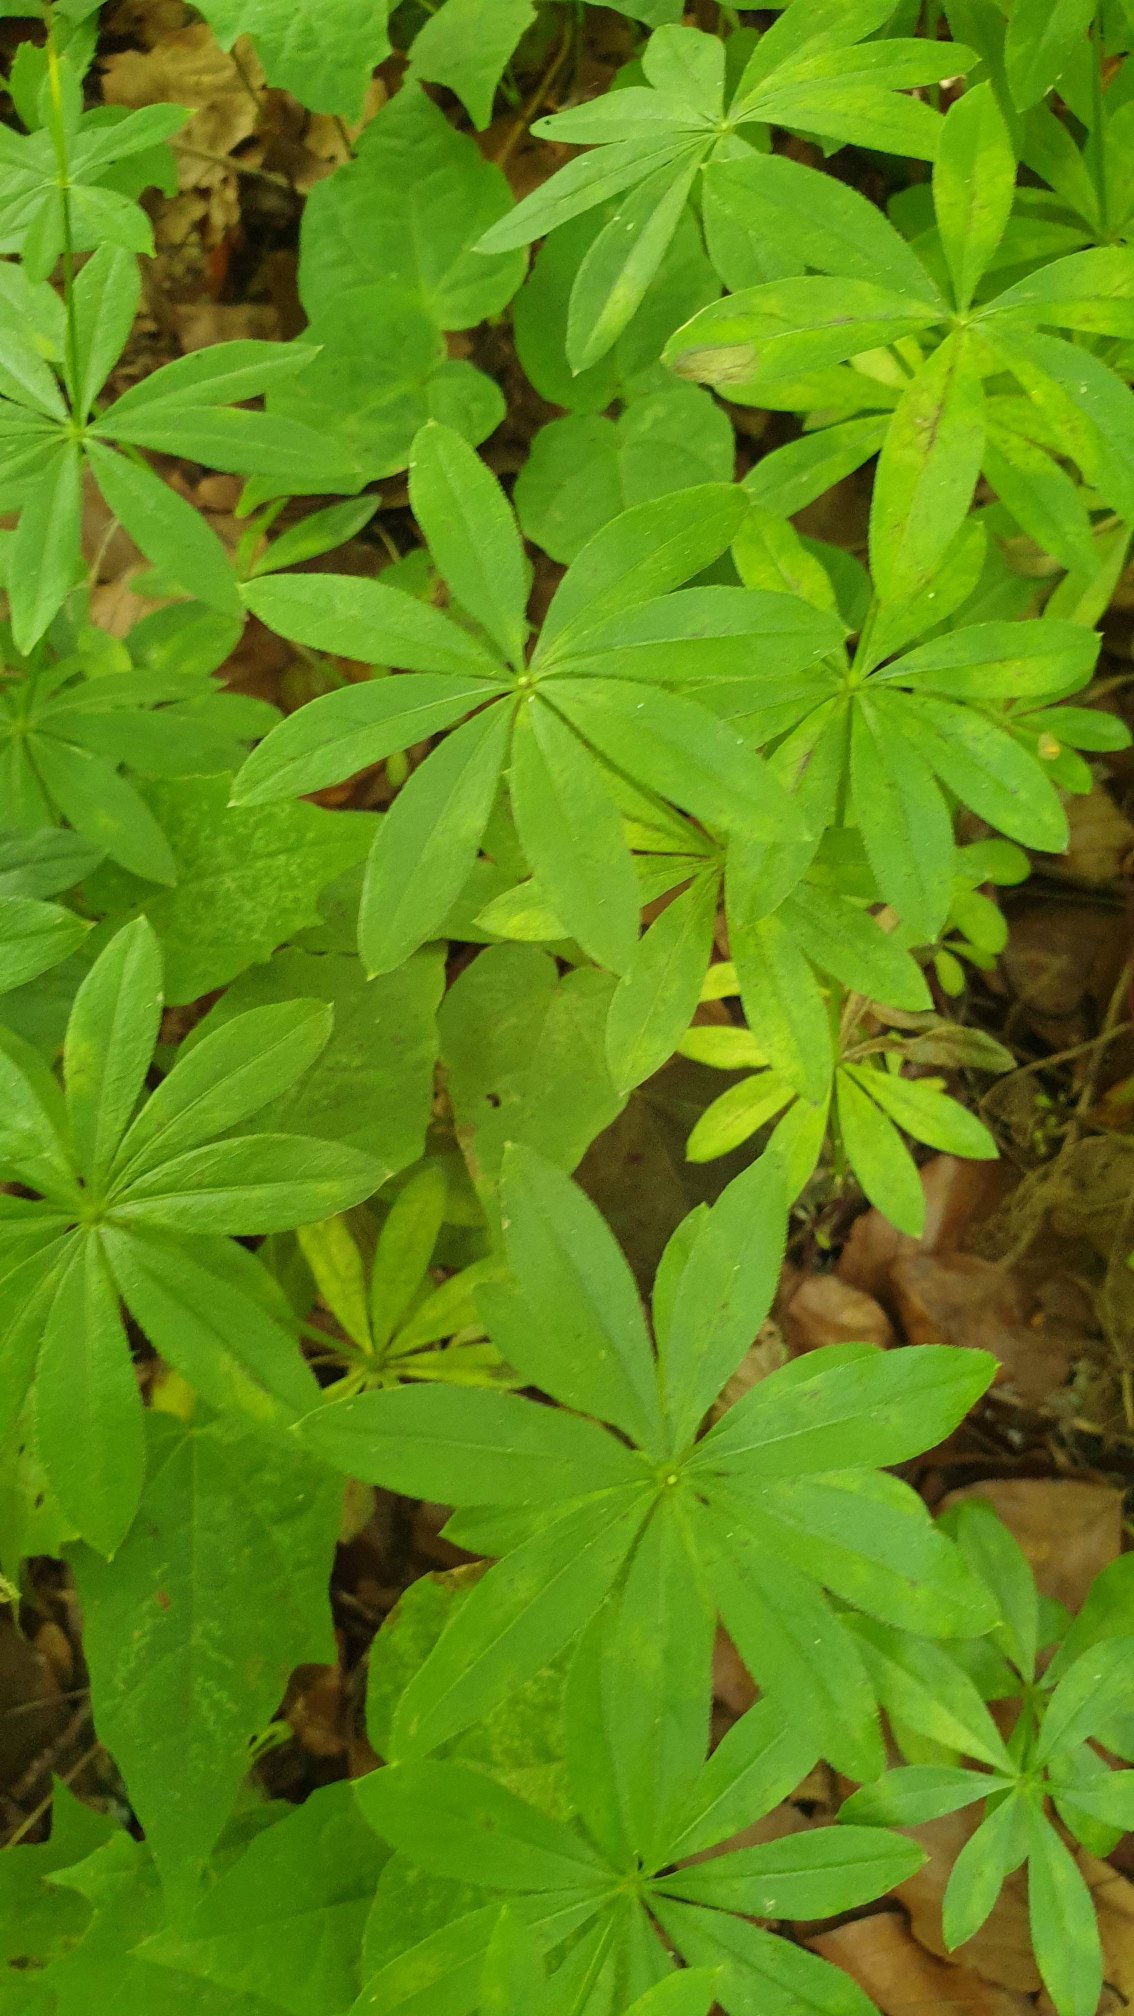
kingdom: Plantae
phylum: Tracheophyta
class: Magnoliopsida
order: Gentianales
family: Rubiaceae
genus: Galium
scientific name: Galium odoratum
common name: Skovmærke
